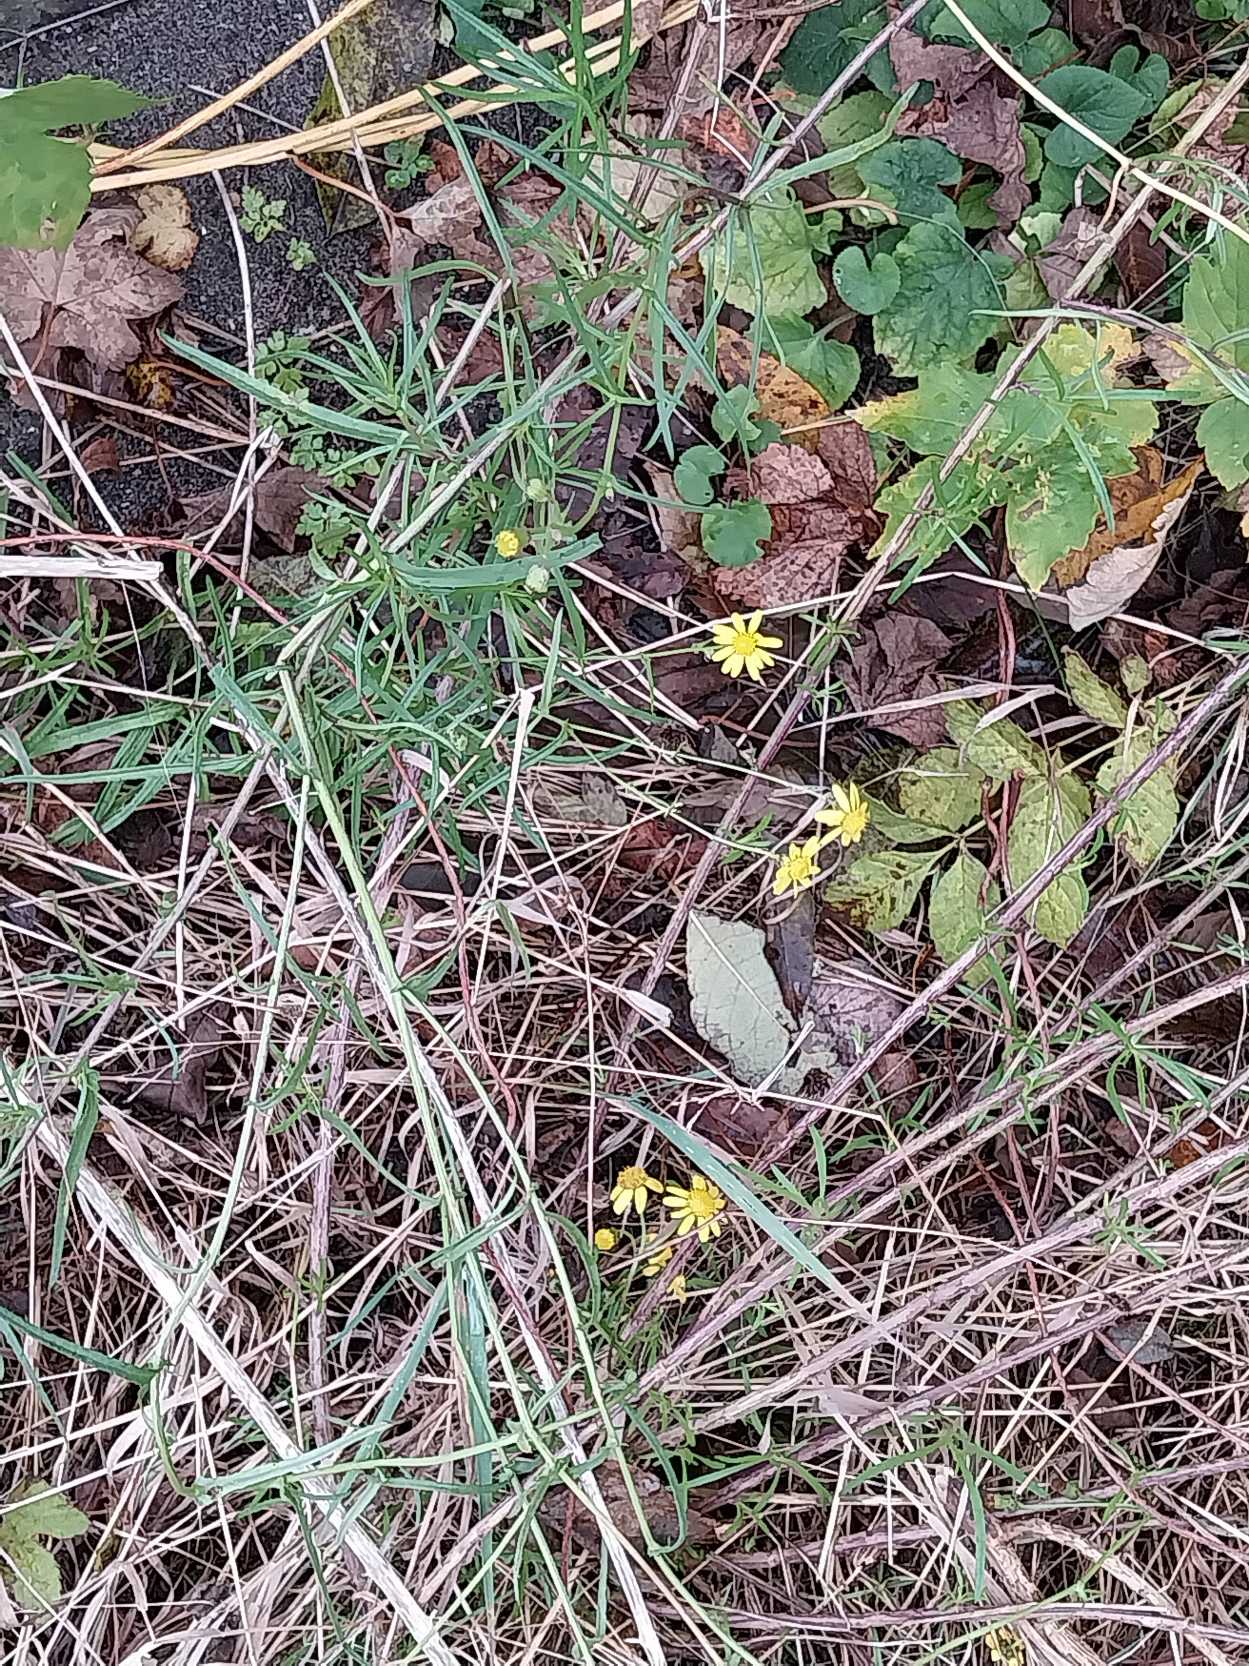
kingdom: Plantae
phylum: Tracheophyta
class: Magnoliopsida
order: Asterales
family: Asteraceae
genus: Senecio
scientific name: Senecio inaequidens
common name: Smalbladet brandbæger
